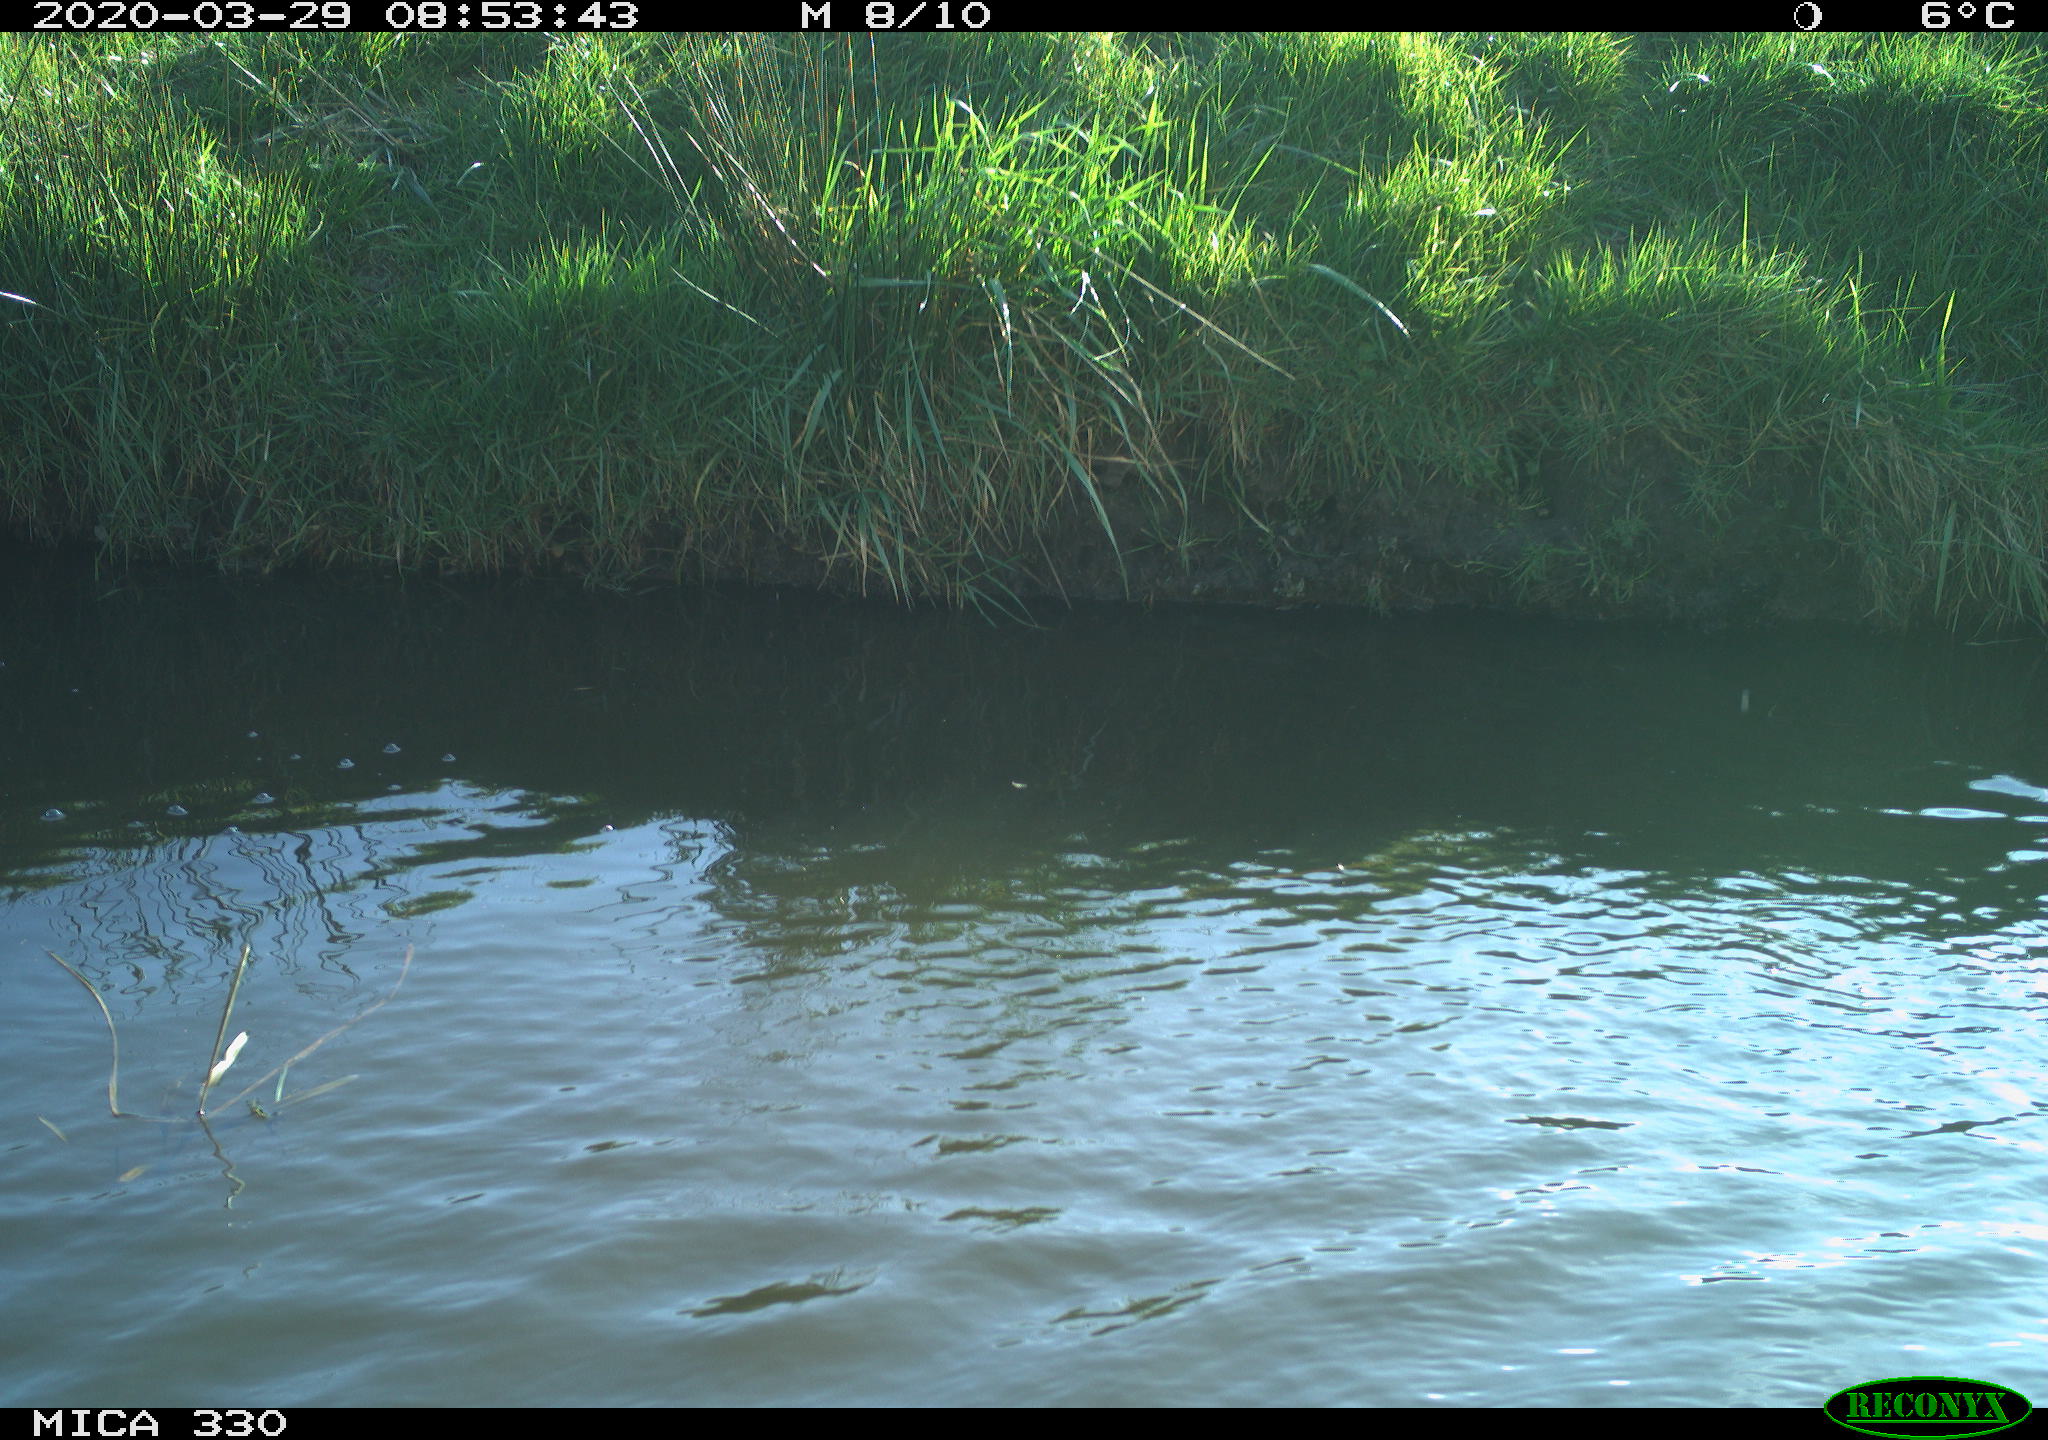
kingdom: Animalia
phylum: Chordata
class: Aves
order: Anseriformes
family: Anatidae
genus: Mareca
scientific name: Mareca strepera
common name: Gadwall
